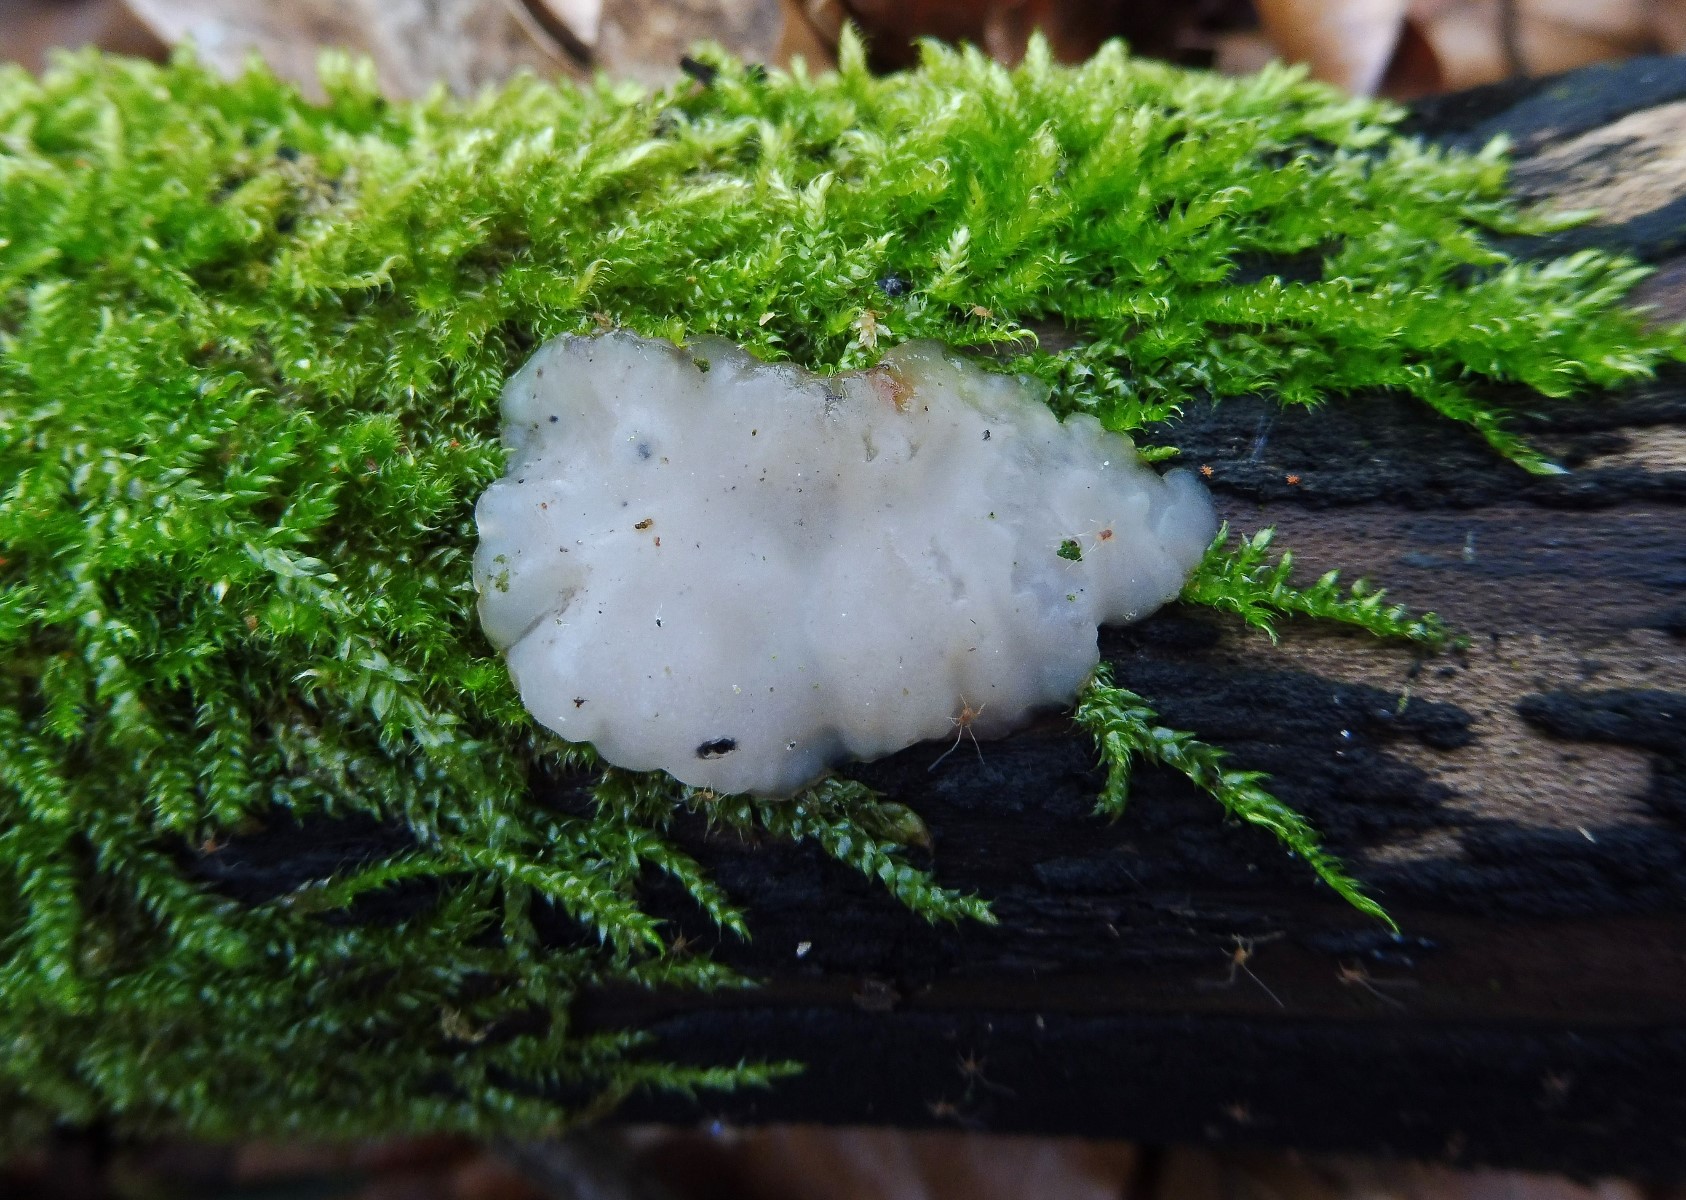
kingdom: Fungi
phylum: Basidiomycota
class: Agaricomycetes
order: Auriculariales
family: Auriculariaceae
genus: Exidia
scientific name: Exidia thuretiana
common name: hvidlig bævretop
